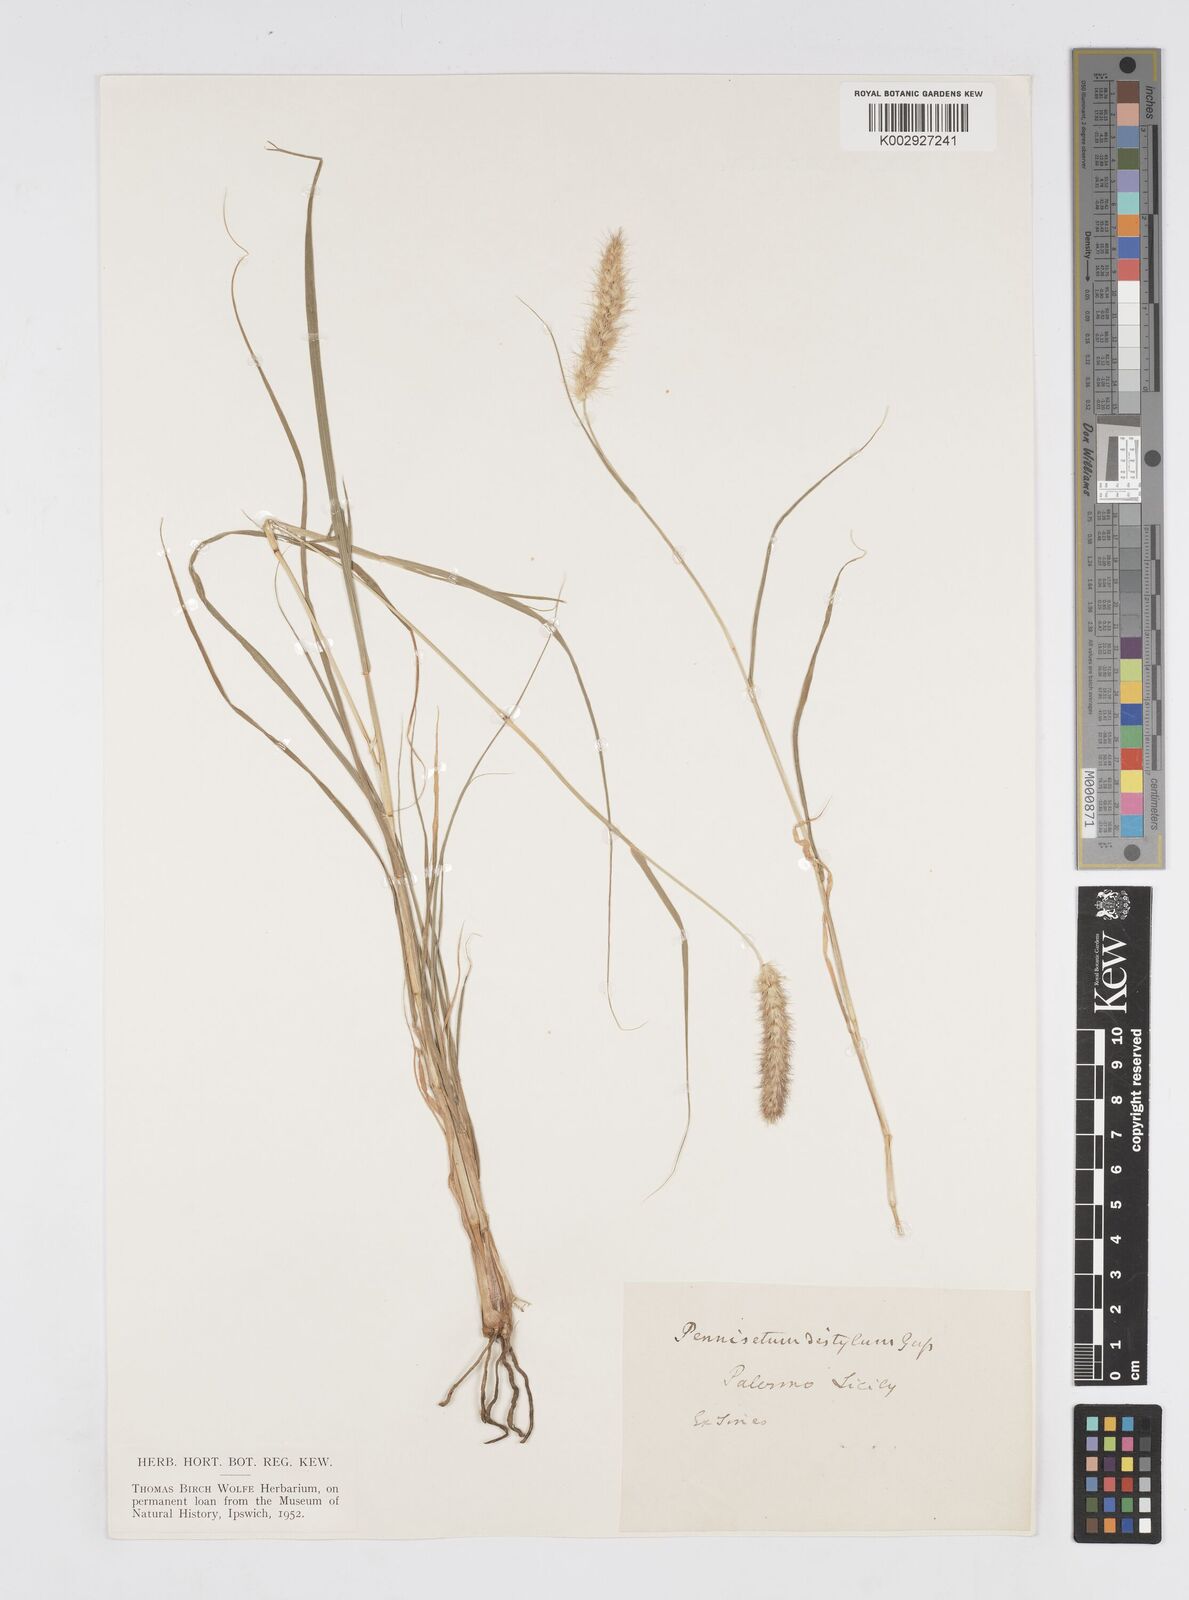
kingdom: Plantae
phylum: Tracheophyta
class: Liliopsida
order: Poales
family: Poaceae
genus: Cenchrus
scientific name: Cenchrus ciliaris
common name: Buffelgrass
